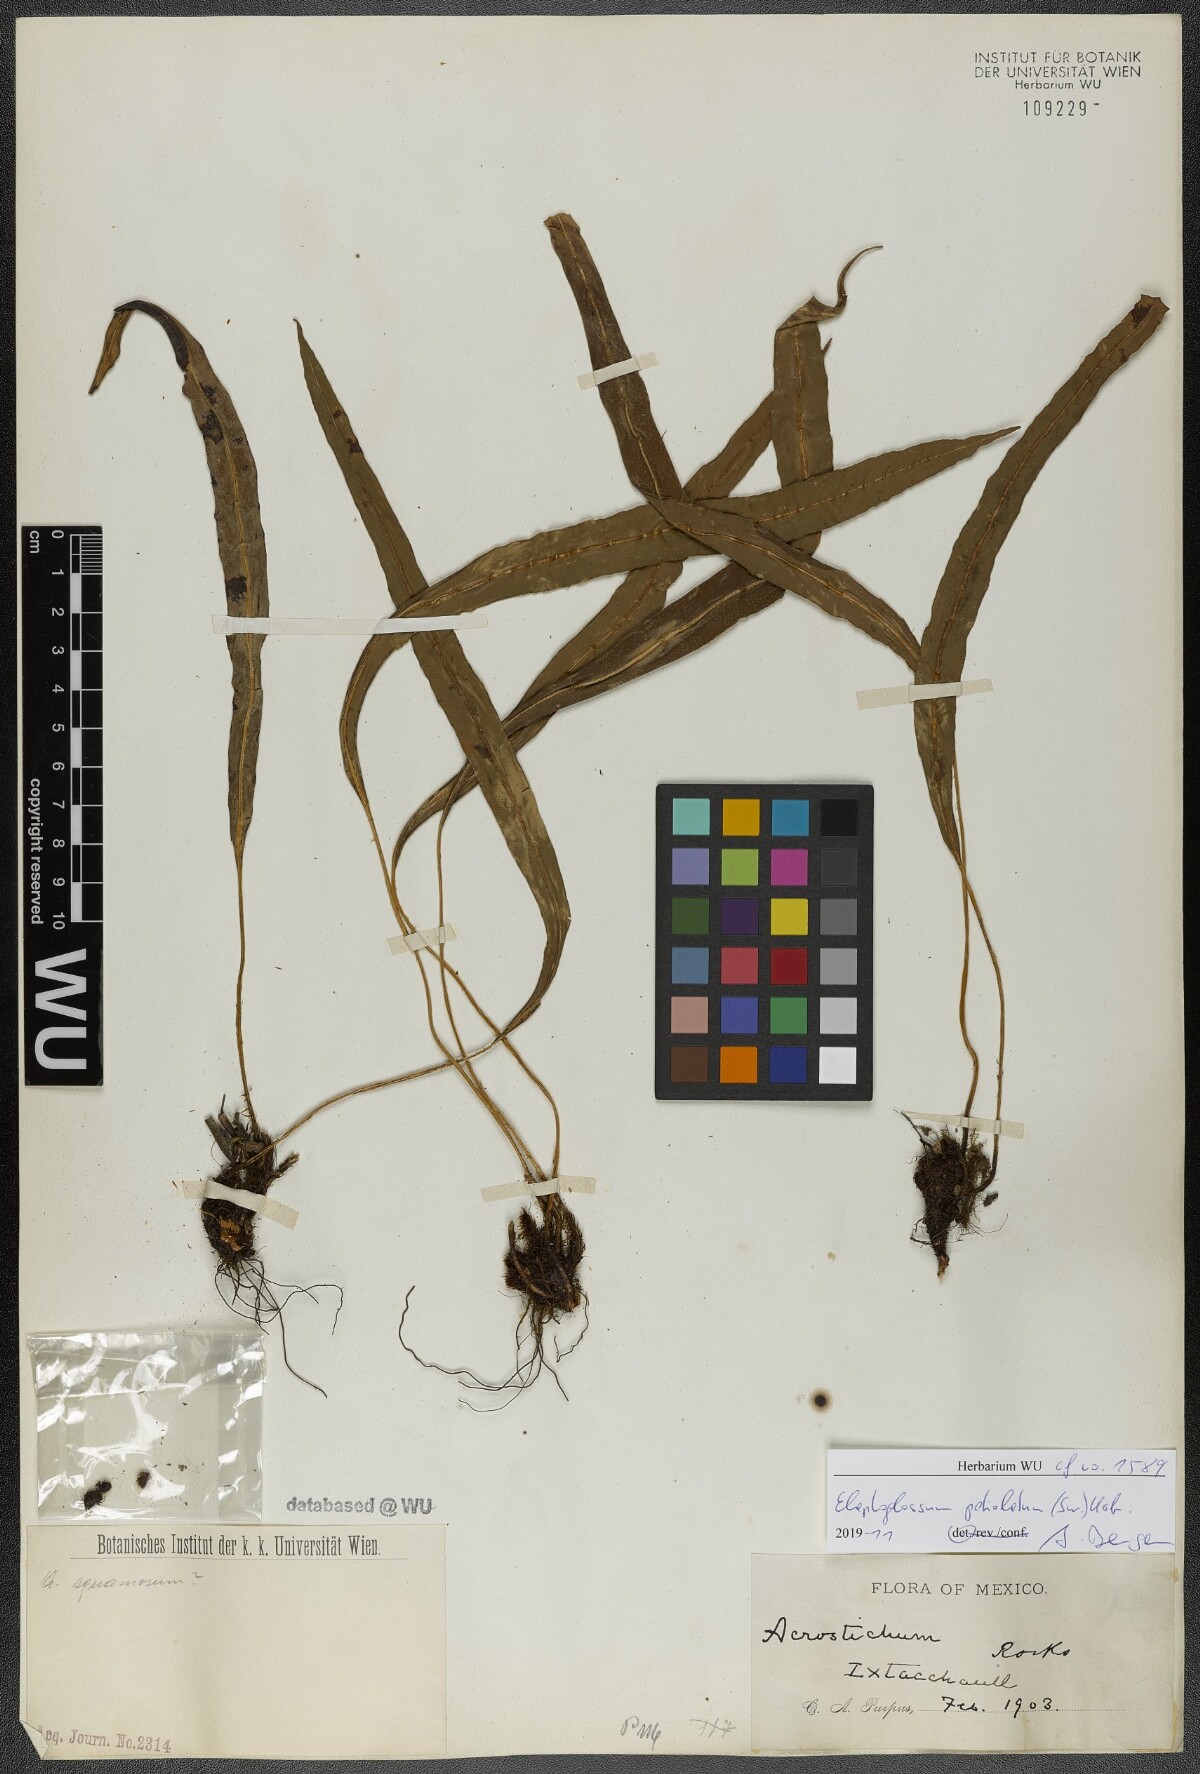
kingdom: Plantae
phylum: Tracheophyta
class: Polypodiopsida
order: Polypodiales
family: Dryopteridaceae
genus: Elaphoglossum
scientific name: Elaphoglossum petiolatum
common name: Graceful tonguefern
